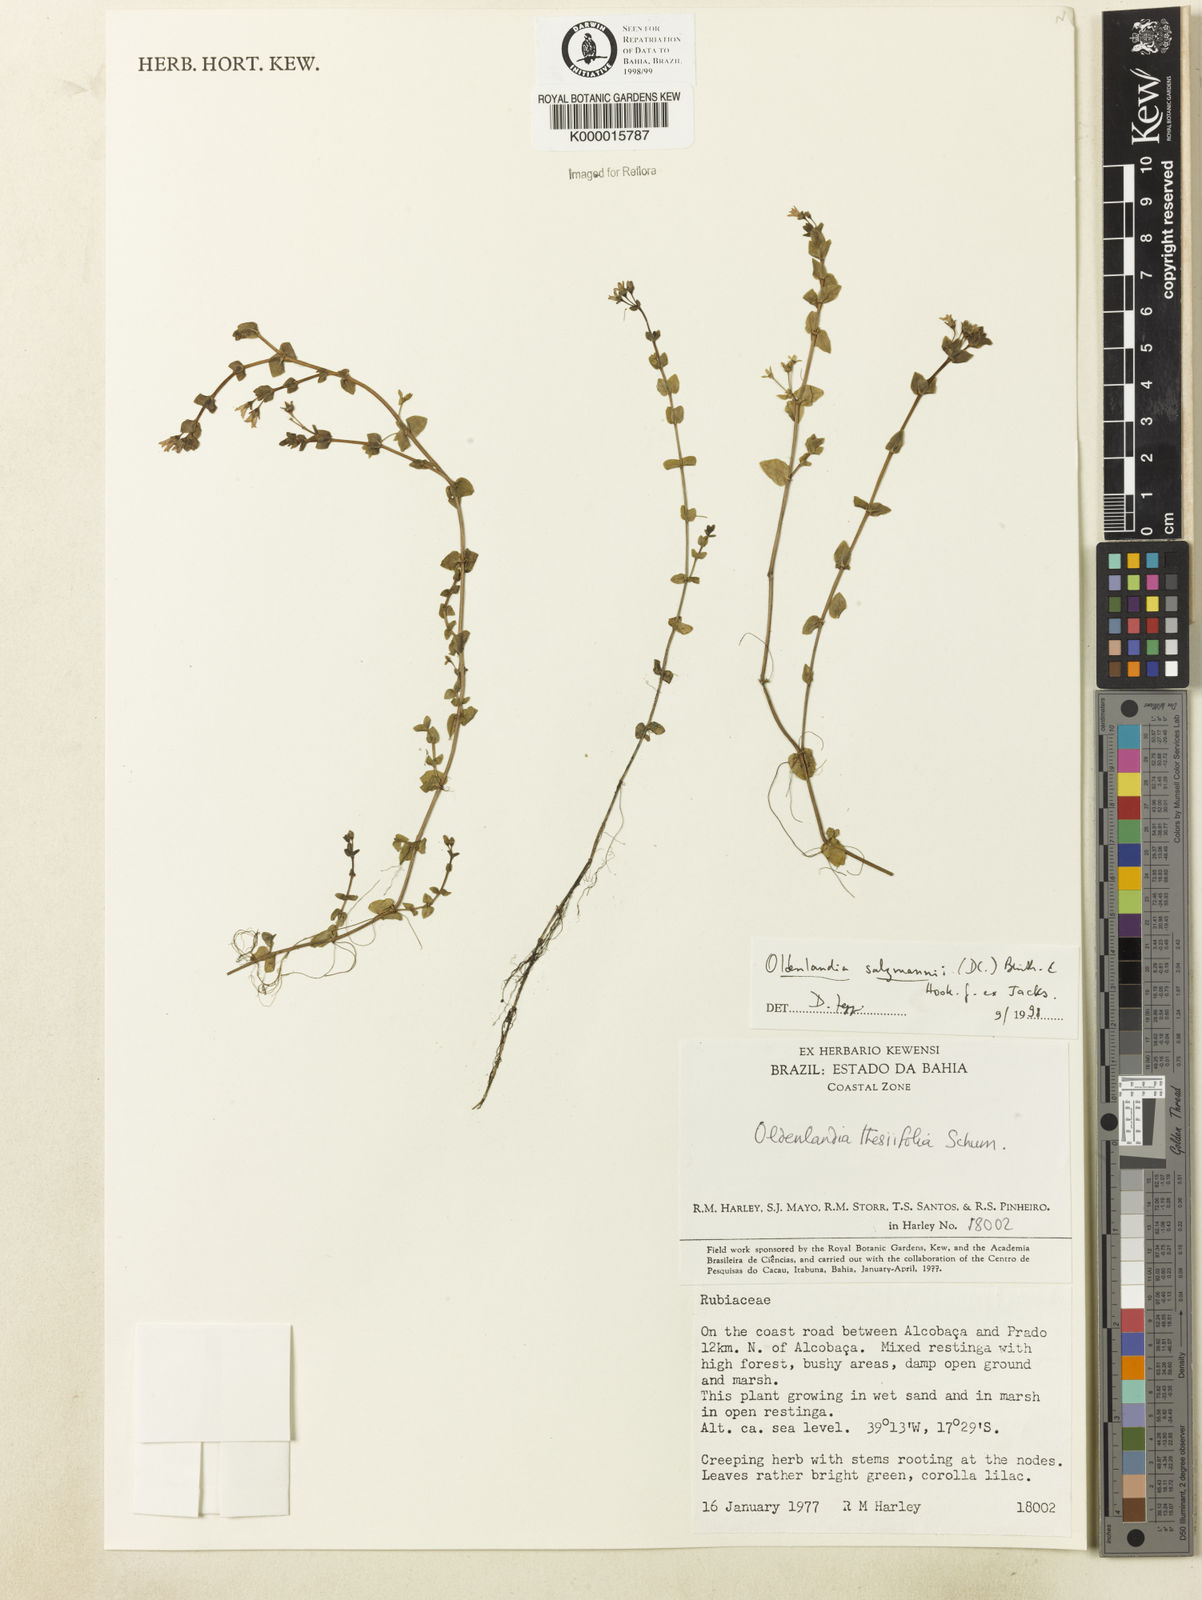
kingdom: Plantae
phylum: Tracheophyta
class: Magnoliopsida
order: Gentianales
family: Rubiaceae
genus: Oldenlandia
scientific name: Oldenlandia salzmannii
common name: Salzmann's mille graines
